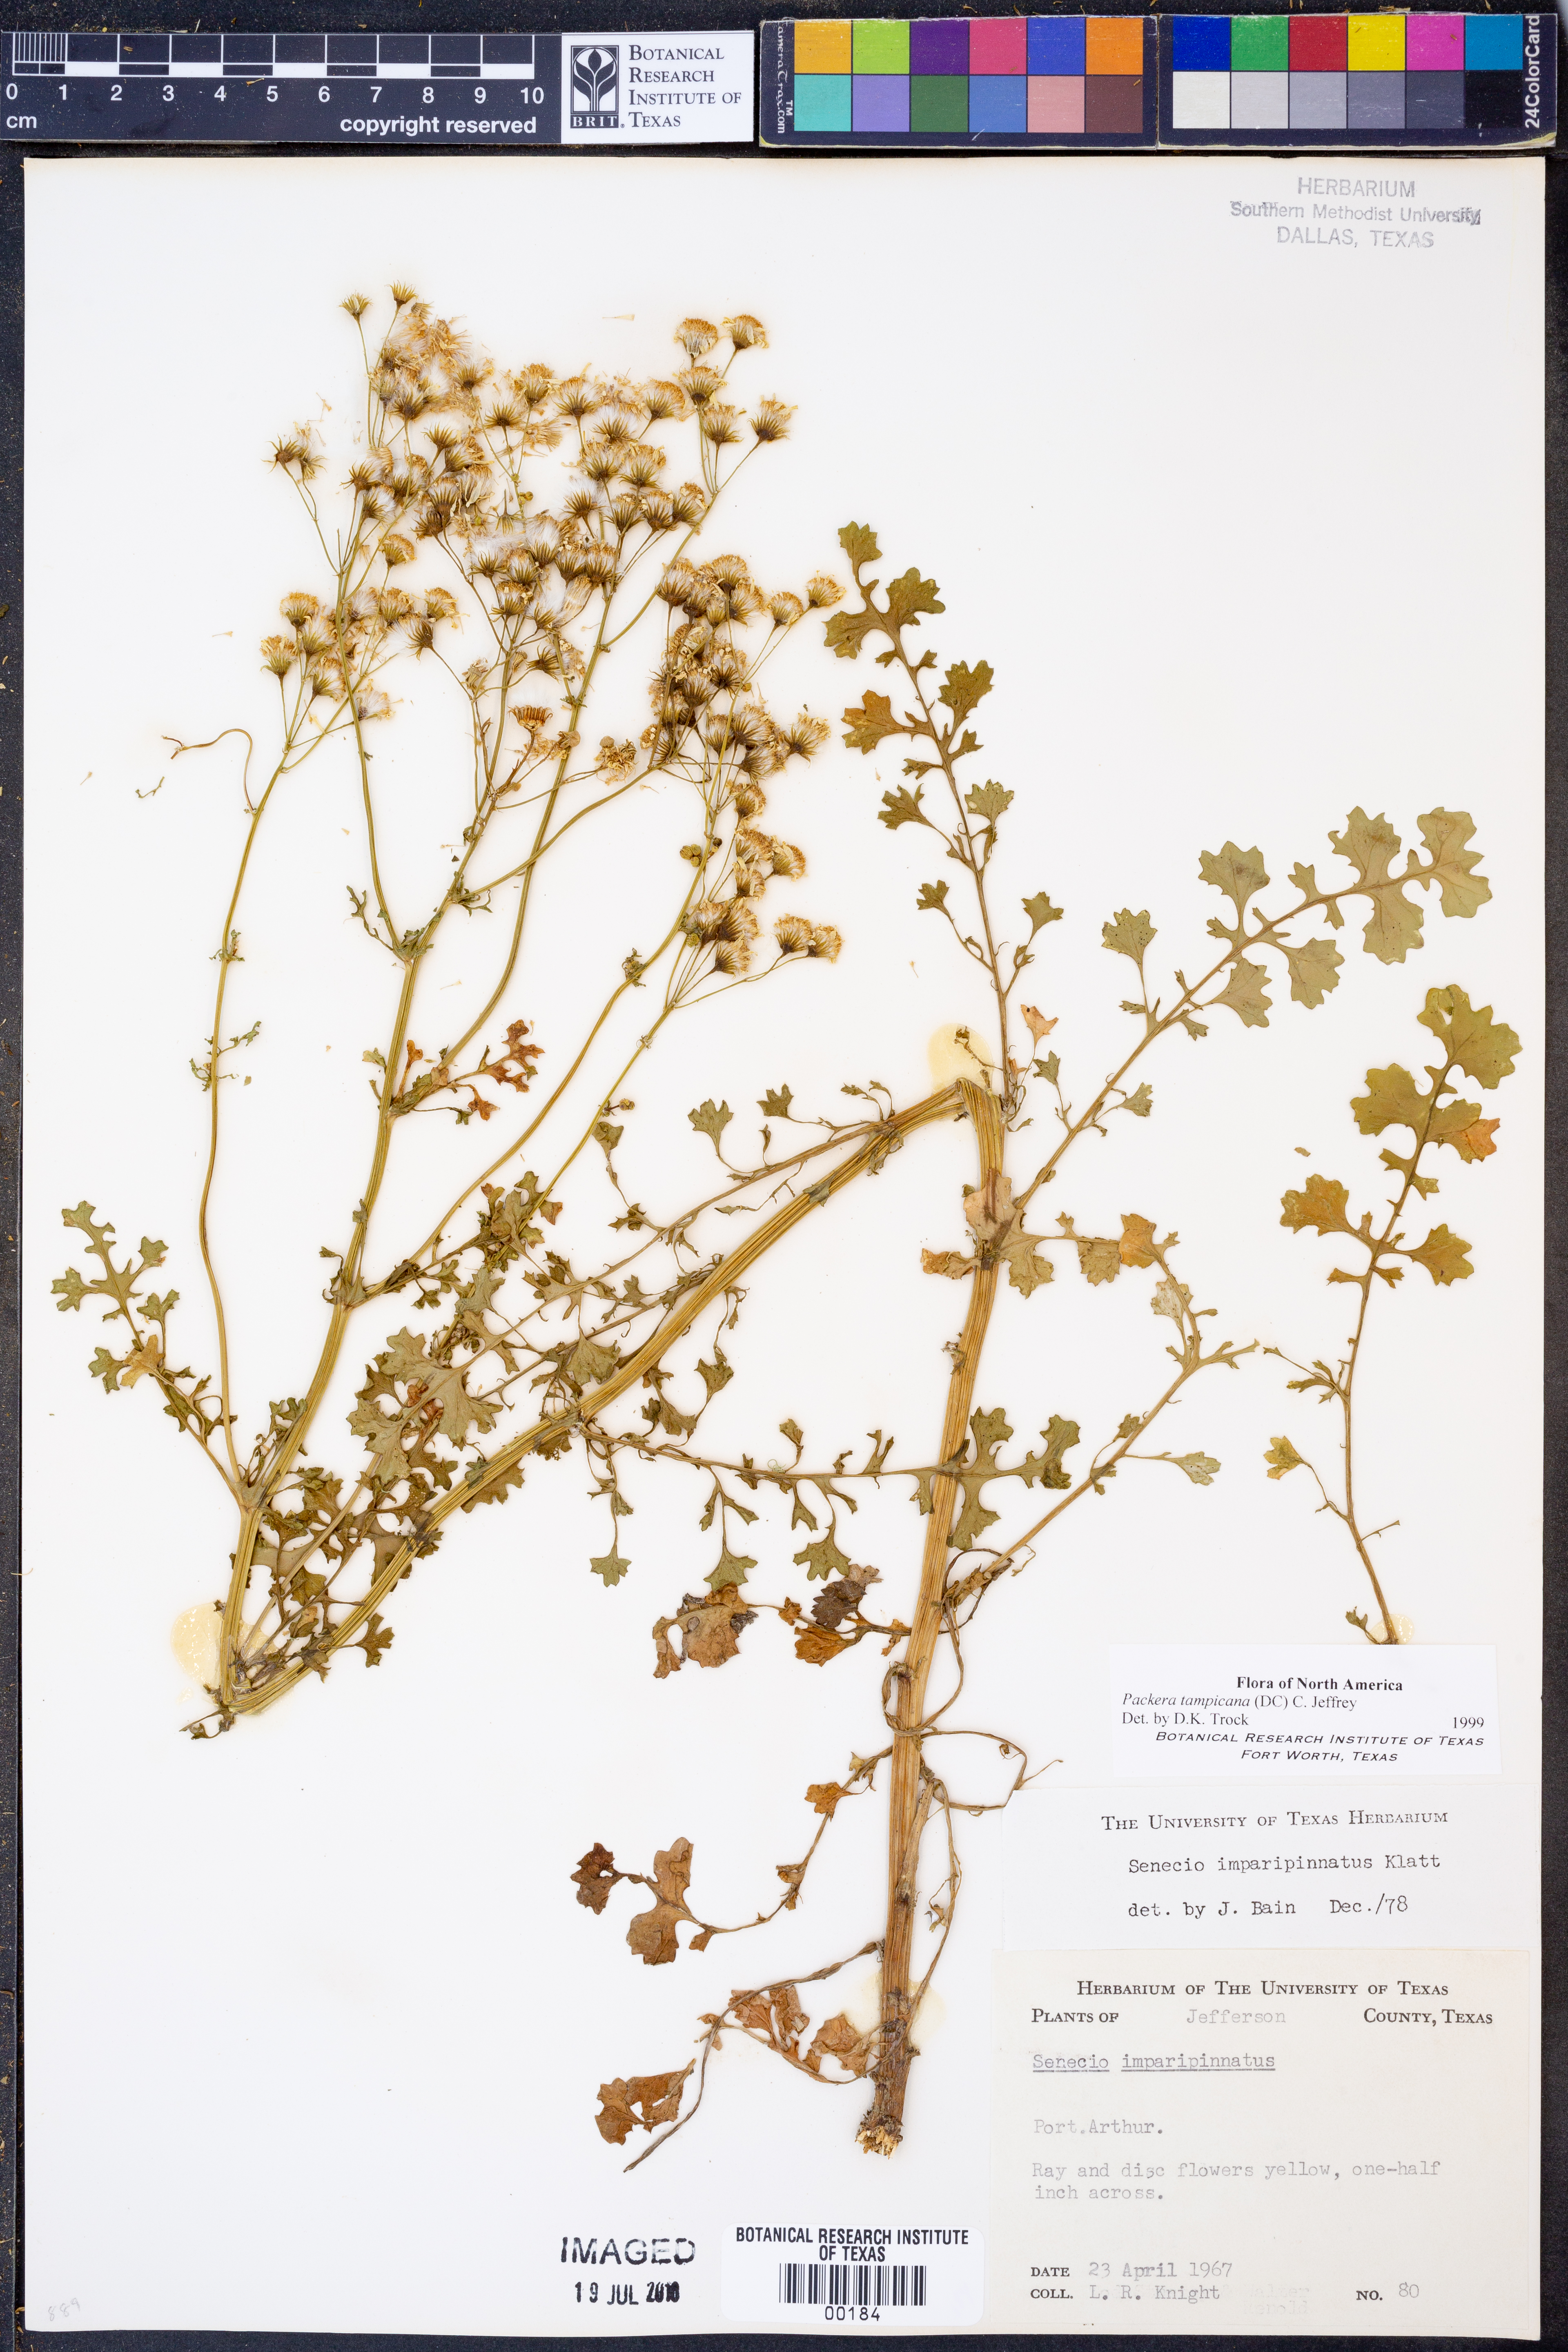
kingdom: Plantae
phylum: Tracheophyta
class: Magnoliopsida
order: Asterales
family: Asteraceae
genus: Packera
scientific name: Packera tampicana
